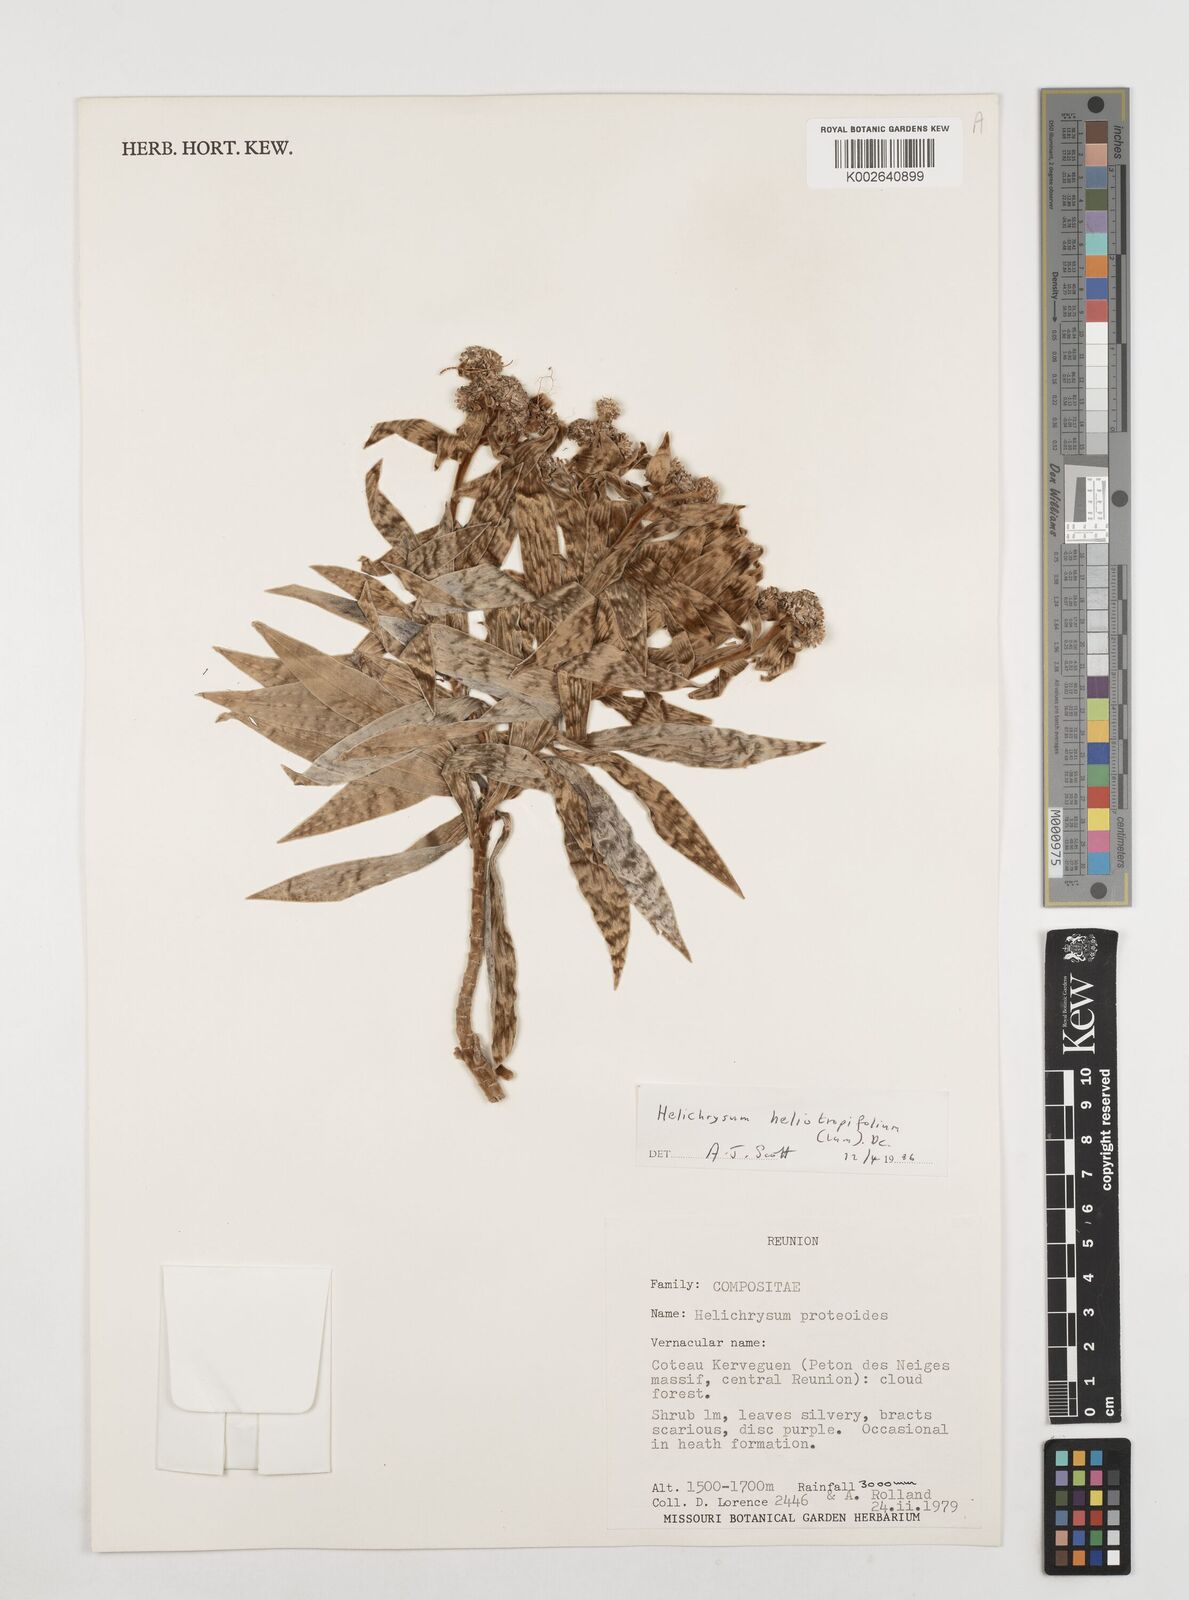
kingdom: Plantae
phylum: Tracheophyta
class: Magnoliopsida
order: Asterales
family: Asteraceae
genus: Helichrysum
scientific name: Helichrysum heliotropifolium
